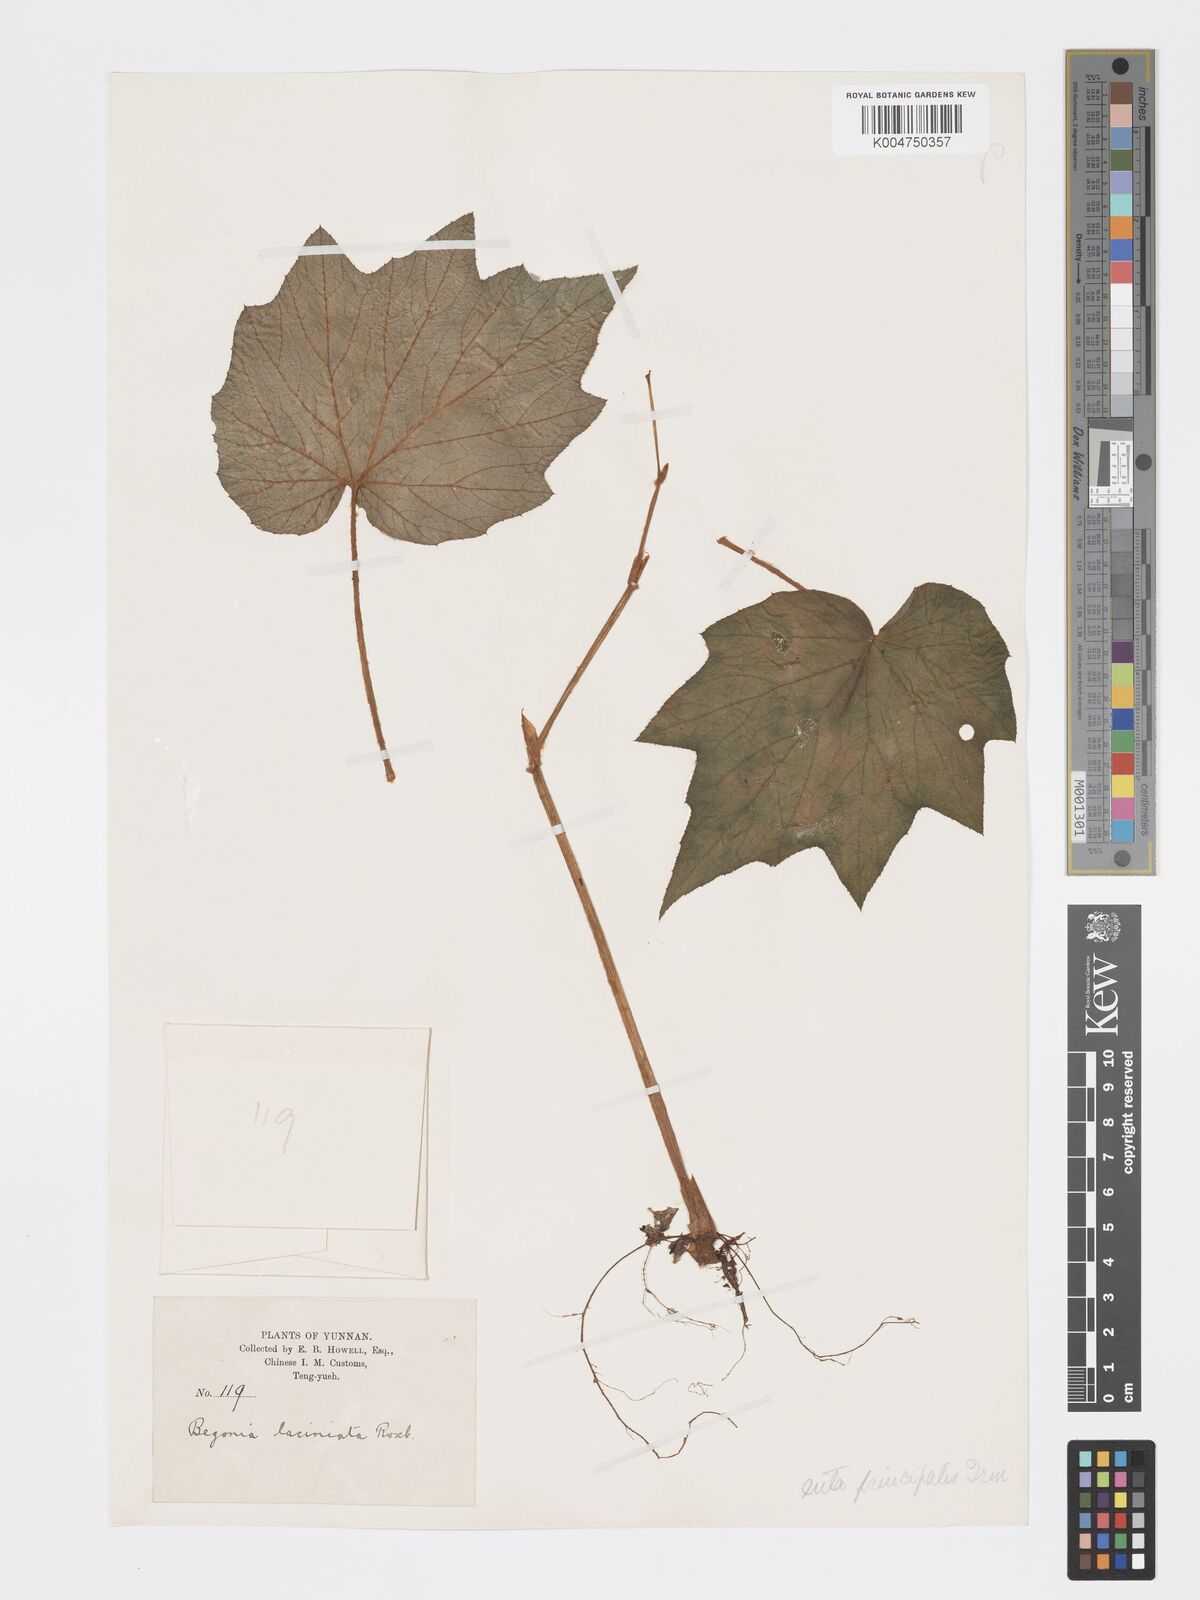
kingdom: Plantae
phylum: Tracheophyta
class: Magnoliopsida
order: Cucurbitales
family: Begoniaceae
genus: Begonia
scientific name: Begonia palmata
